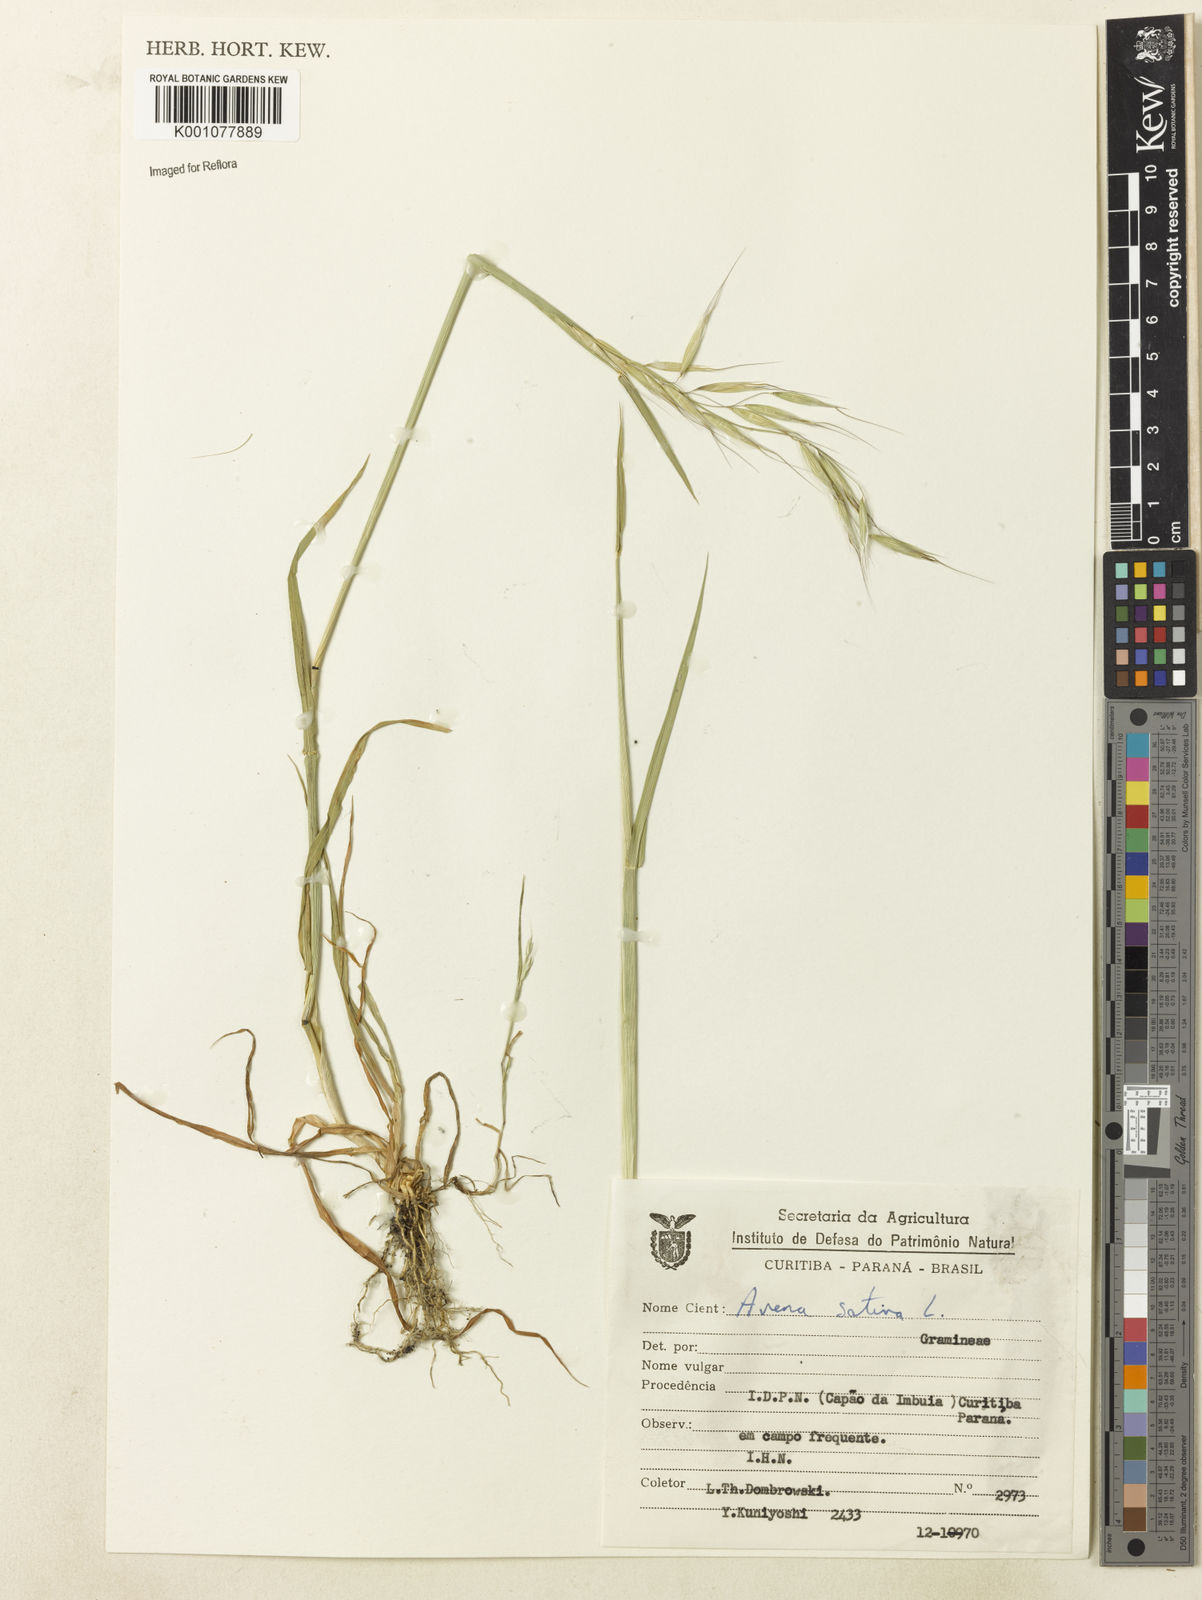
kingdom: Plantae
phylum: Tracheophyta
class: Liliopsida
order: Poales
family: Poaceae
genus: Avena
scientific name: Avena sativa
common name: Oat
